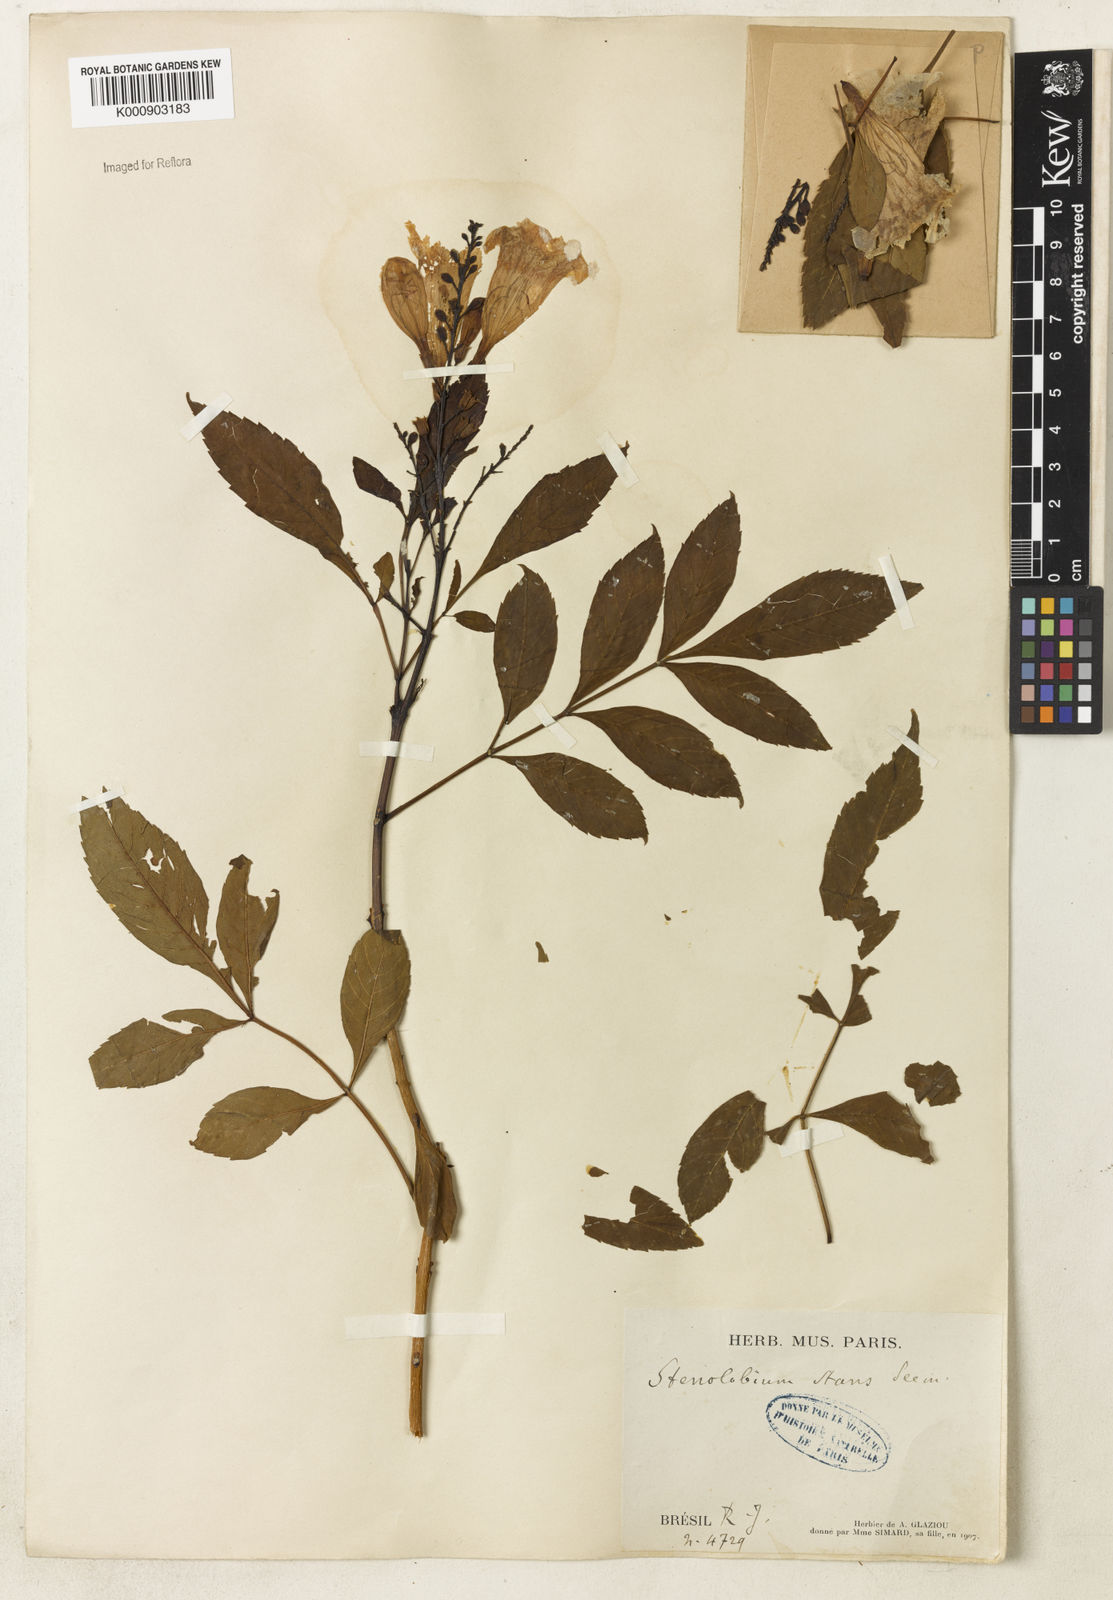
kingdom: Plantae
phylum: Tracheophyta
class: Magnoliopsida
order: Lamiales
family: Bignoniaceae
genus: Tecoma
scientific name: Tecoma stans
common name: Yellow trumpetbush
